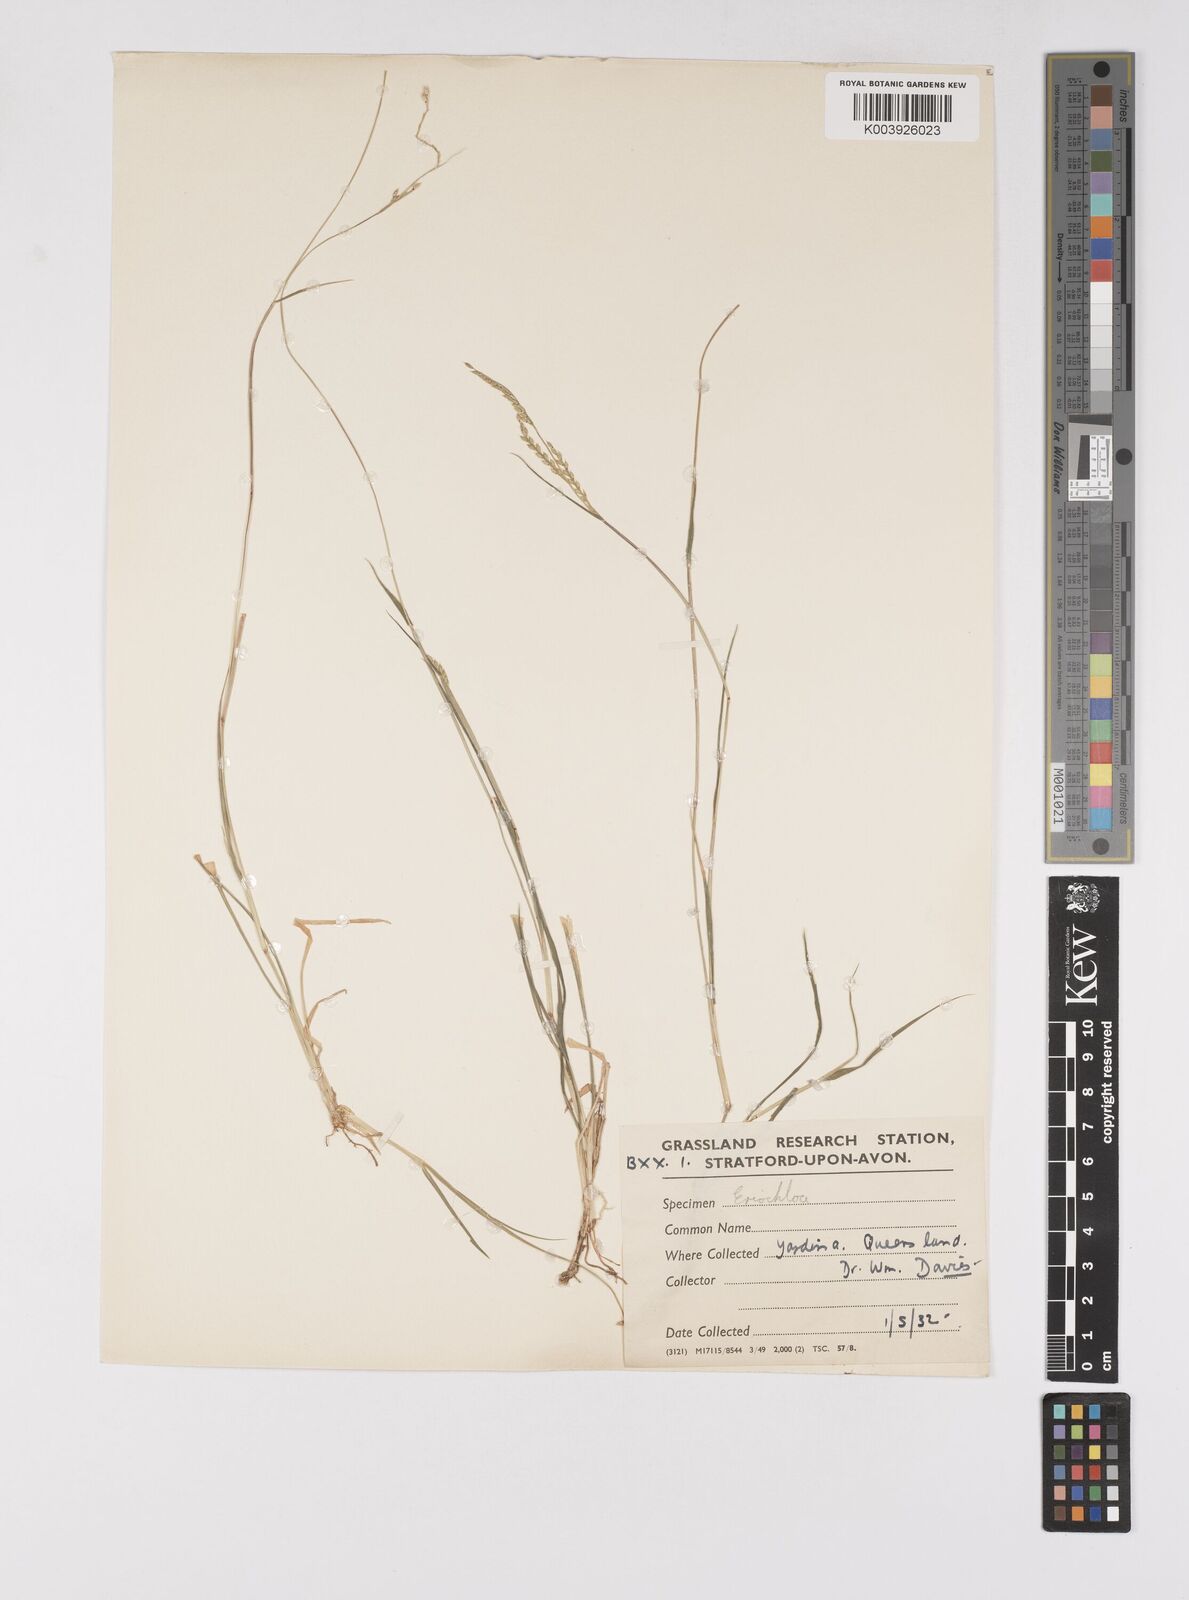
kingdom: Plantae
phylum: Tracheophyta
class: Liliopsida
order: Poales
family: Poaceae
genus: Eriochloa
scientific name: Eriochloa
